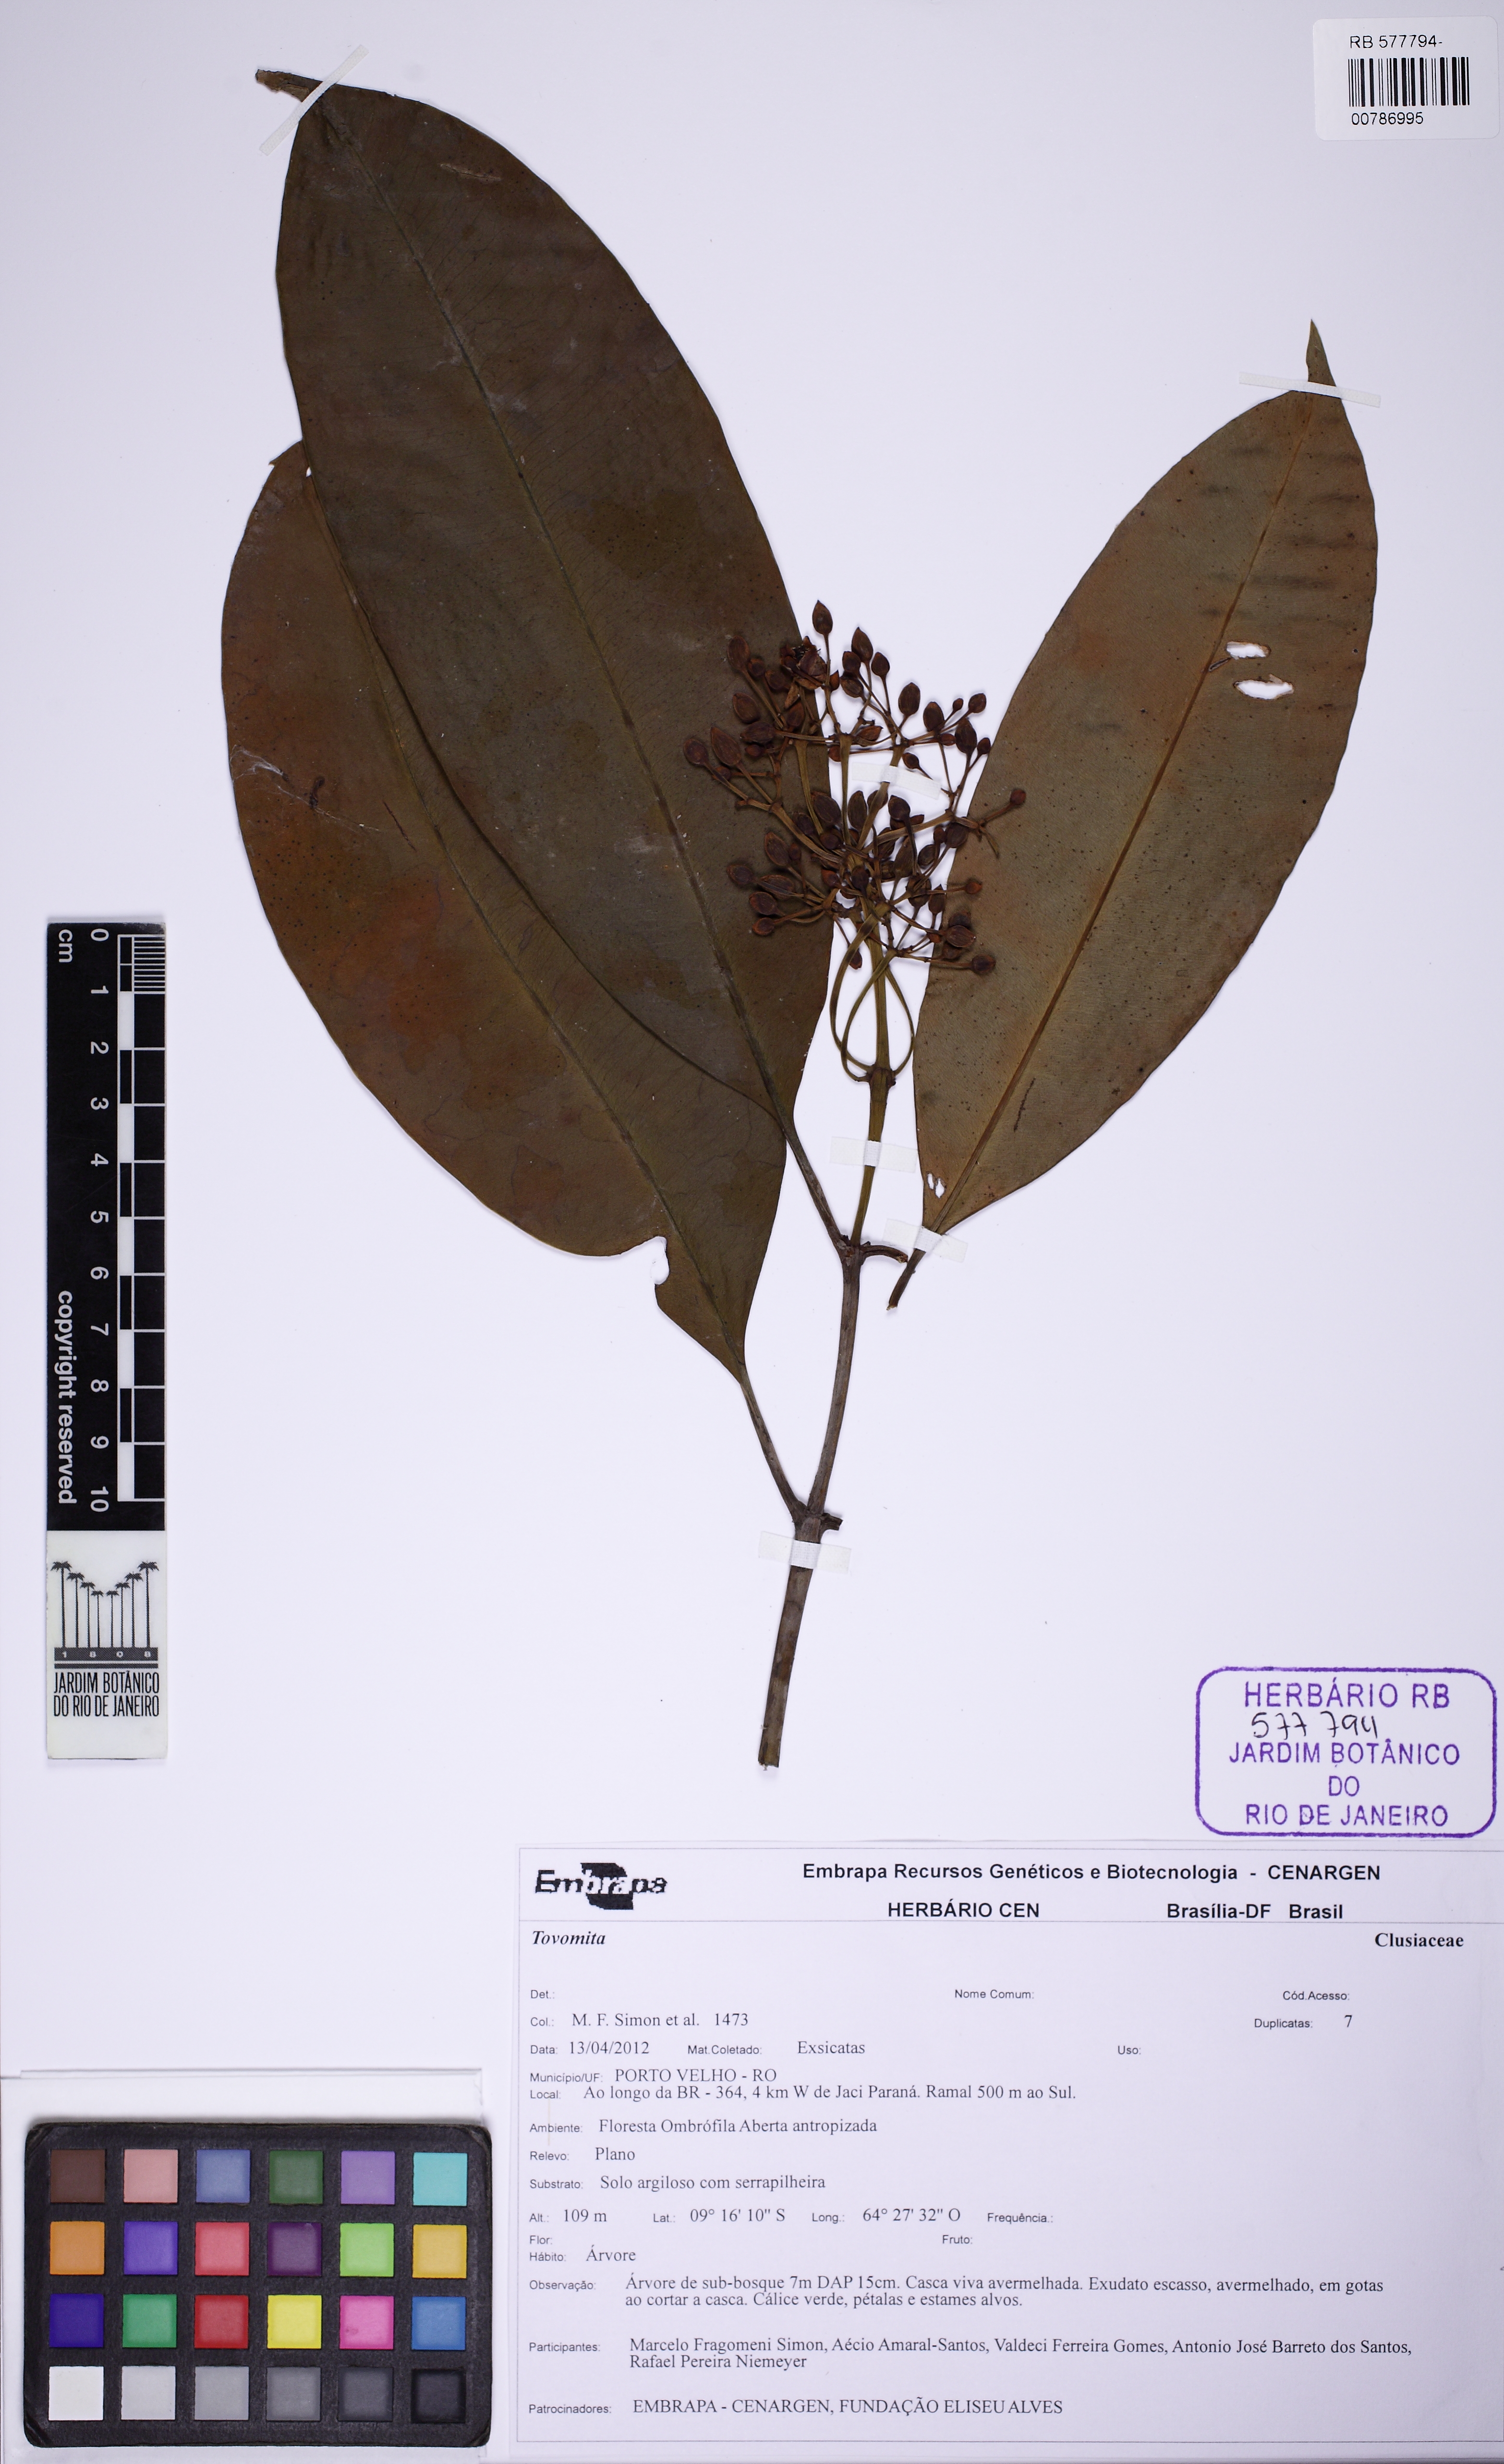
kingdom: Plantae
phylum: Tracheophyta
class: Magnoliopsida
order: Malpighiales
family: Clusiaceae
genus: Tovomita
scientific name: Tovomita
